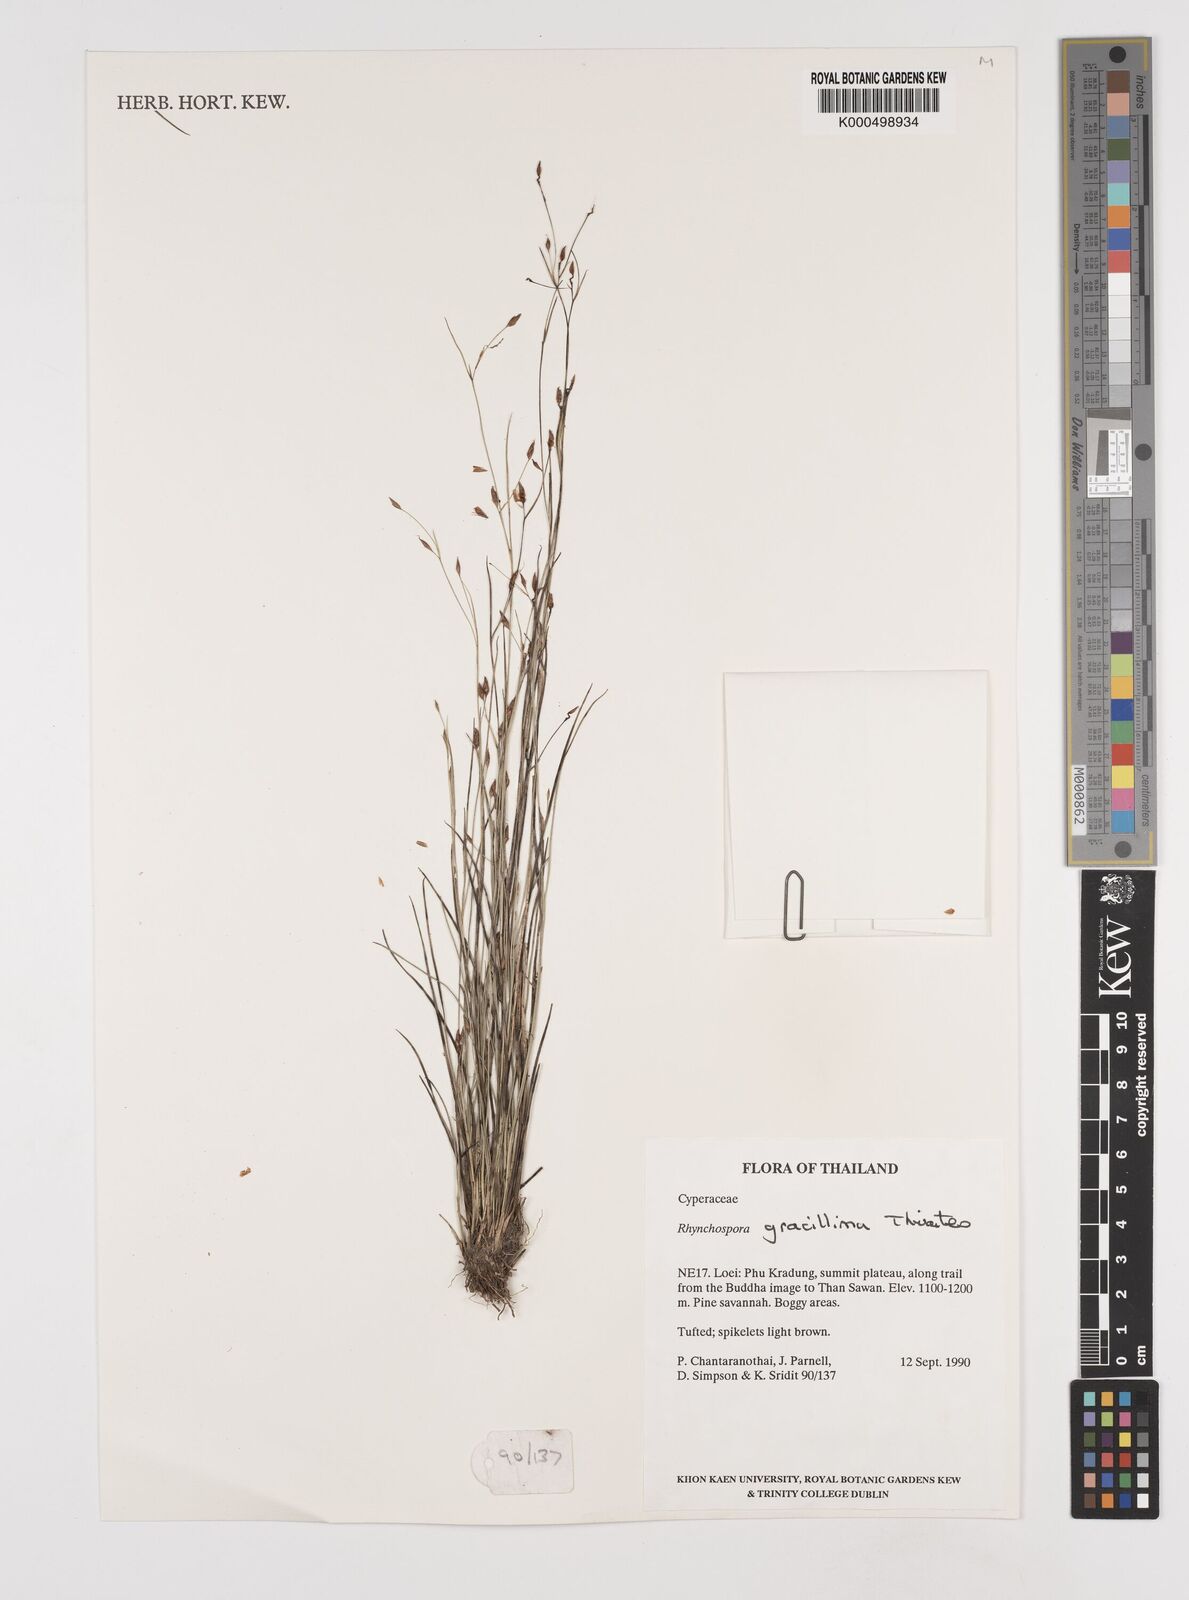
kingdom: Plantae
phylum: Tracheophyta
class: Liliopsida
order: Poales
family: Cyperaceae
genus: Rhynchospora
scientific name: Rhynchospora gracillima
